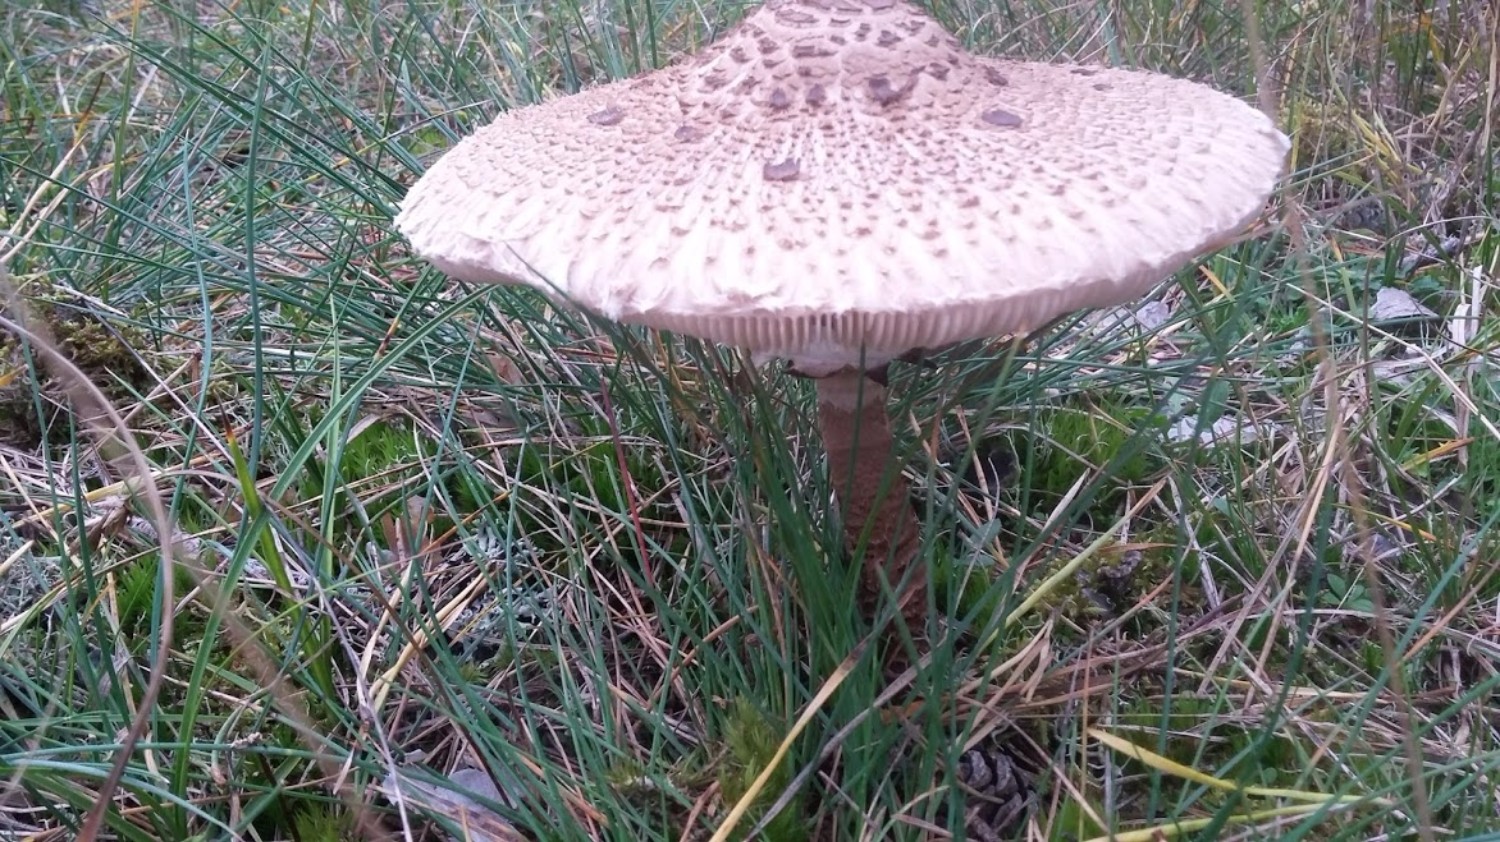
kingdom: Fungi
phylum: Basidiomycota
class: Agaricomycetes
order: Agaricales
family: Agaricaceae
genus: Macrolepiota
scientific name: Macrolepiota procera
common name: stor kæmpeparasolhat
